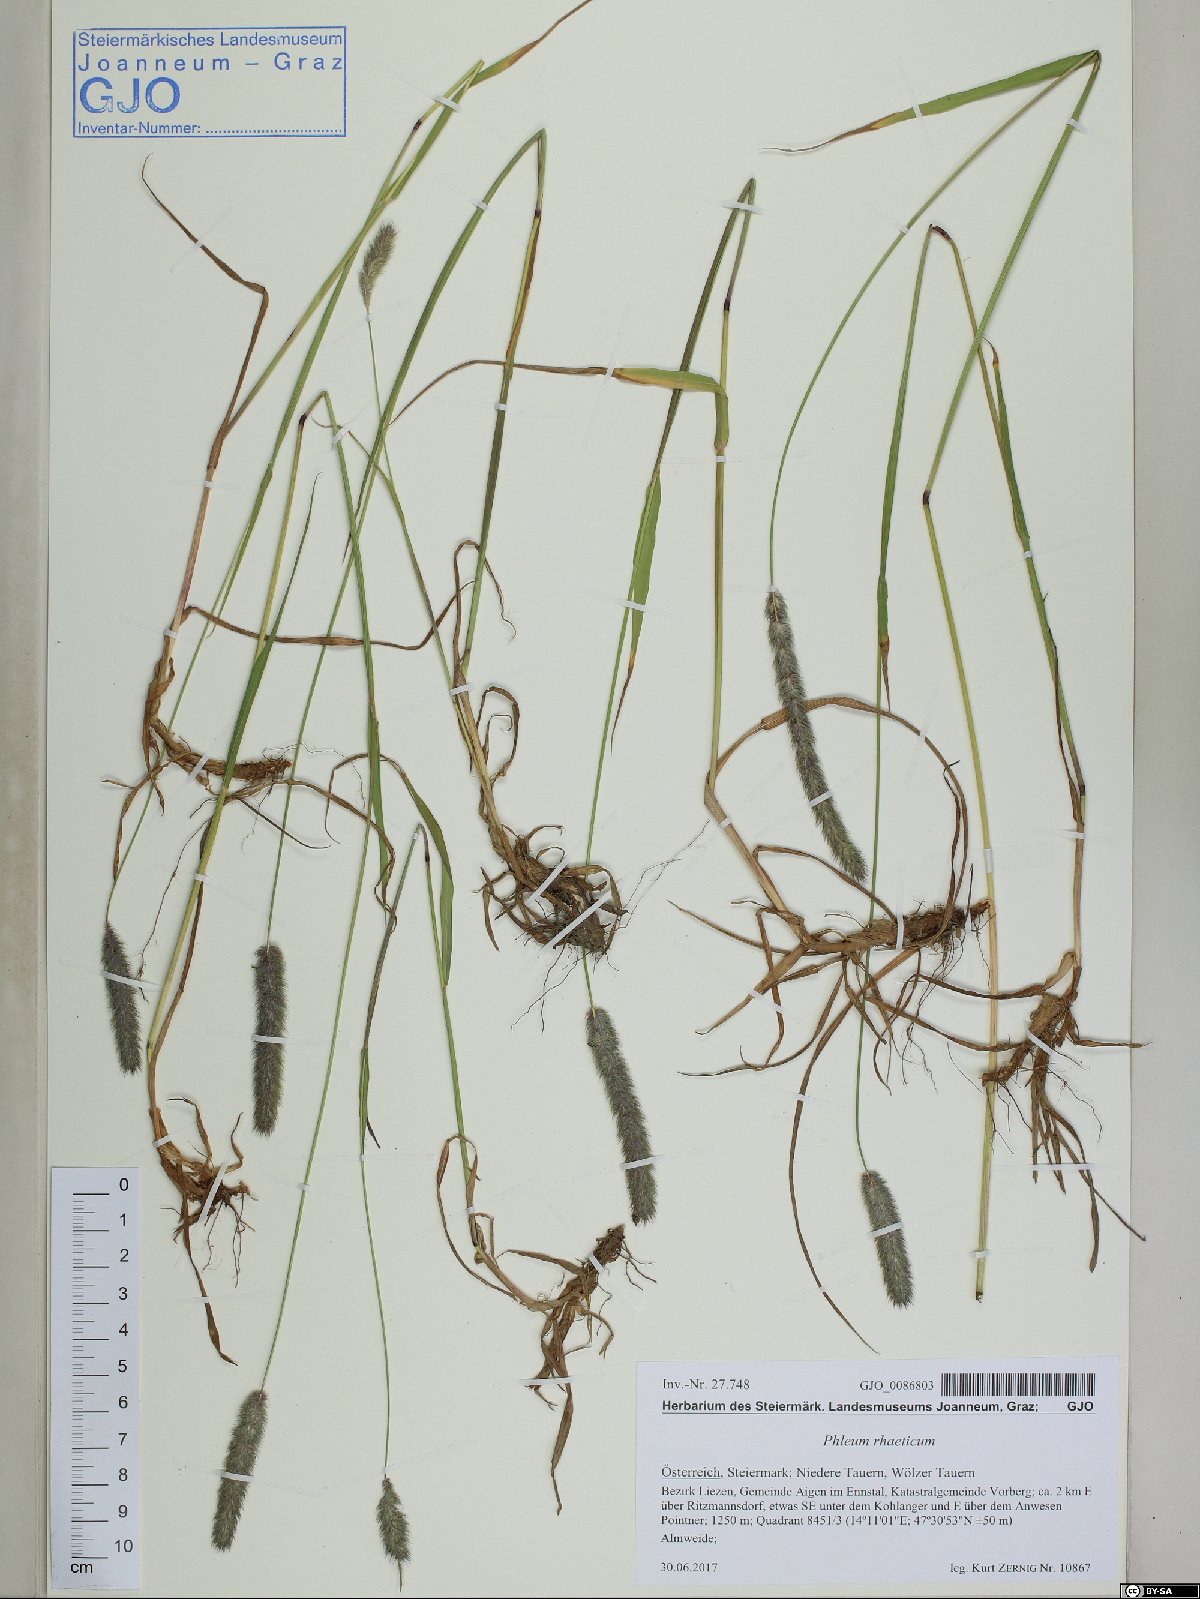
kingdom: Plantae
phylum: Tracheophyta
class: Liliopsida
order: Poales
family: Poaceae
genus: Phleum
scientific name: Phleum alpinum
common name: Alpine cat's-tail
